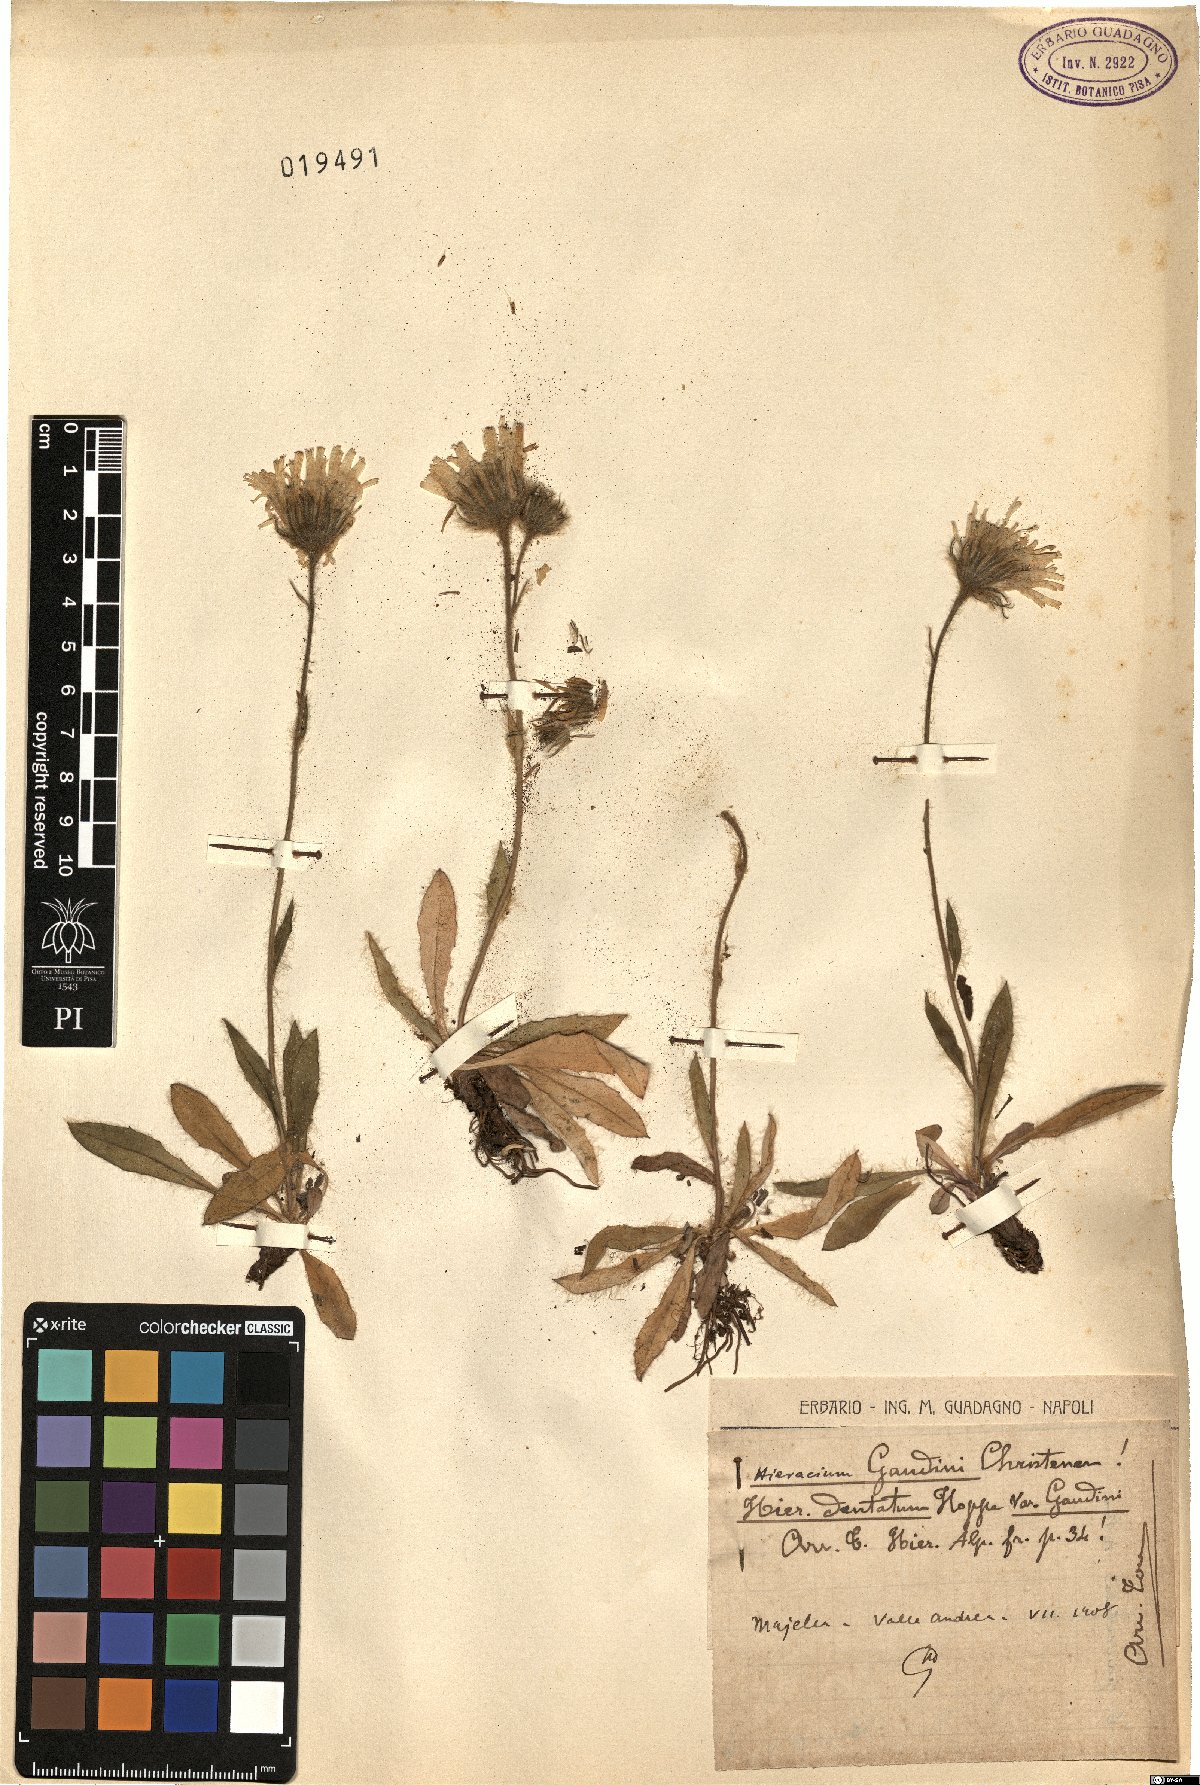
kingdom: Plantae
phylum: Tracheophyta
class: Magnoliopsida
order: Asterales
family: Asteraceae
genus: Hieracium
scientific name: Hieracium dentatum
